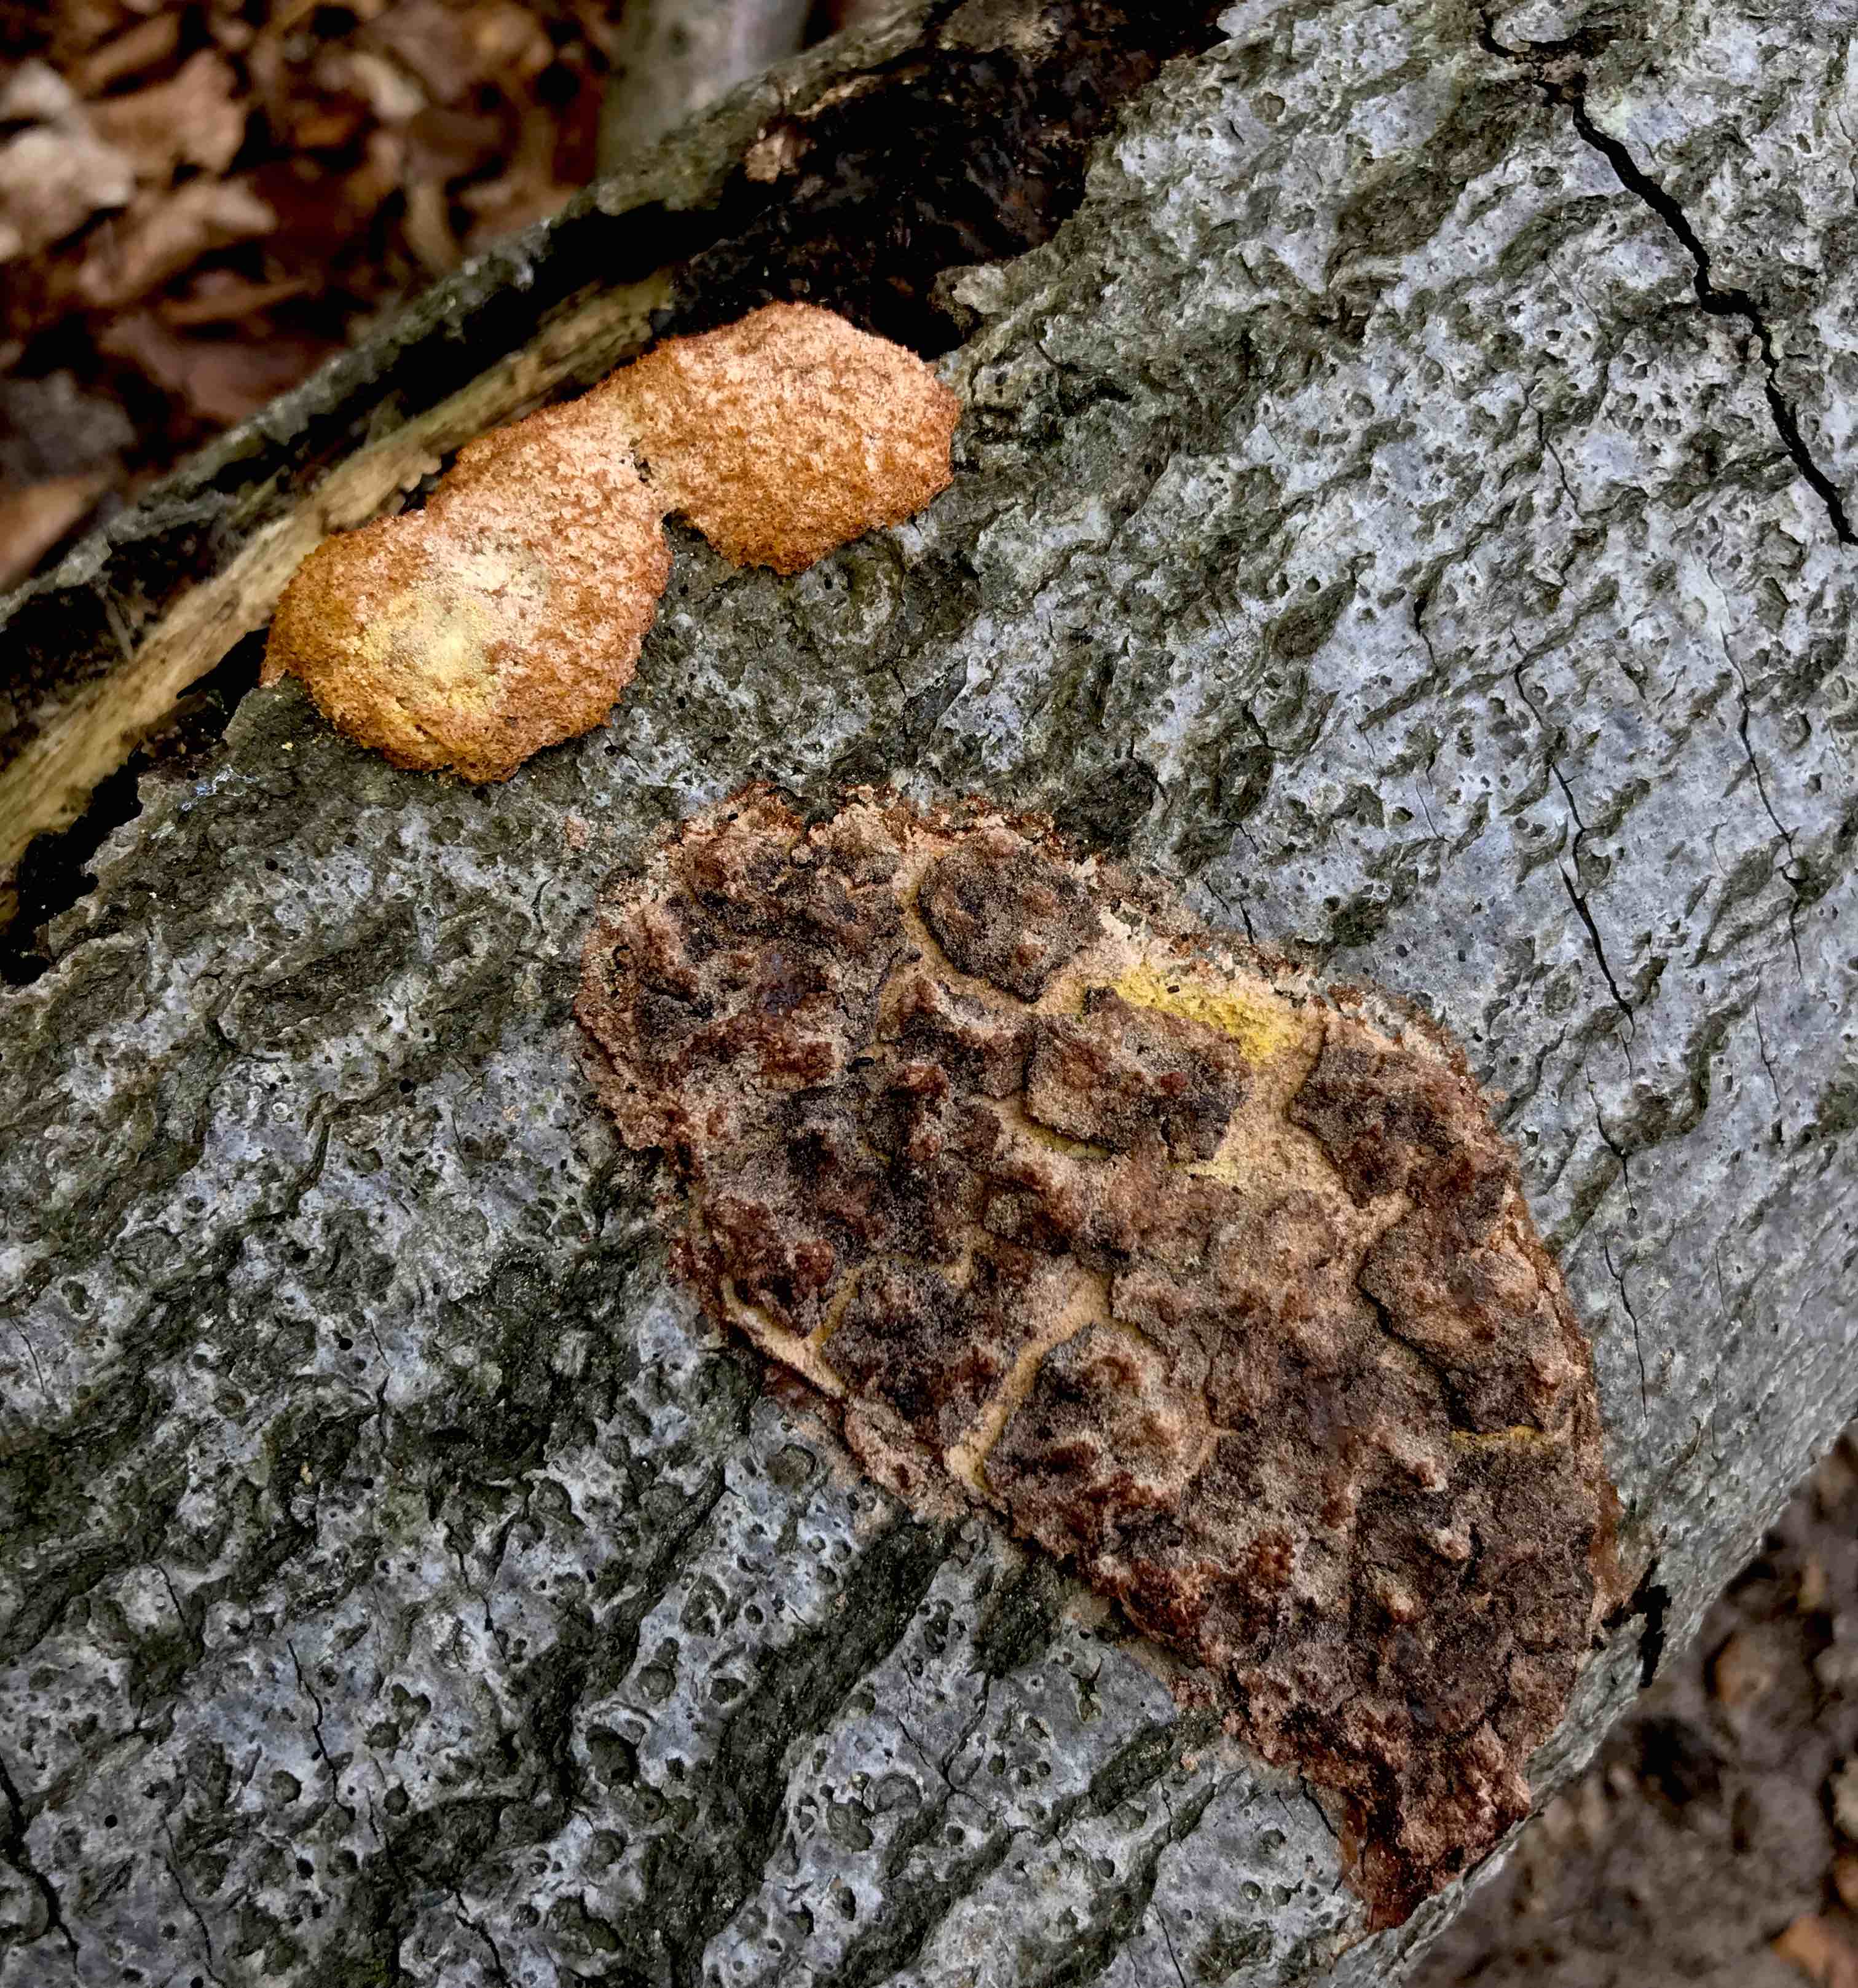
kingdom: Protozoa
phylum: Mycetozoa
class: Myxomycetes
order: Physarales
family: Physaraceae
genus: Fuligo
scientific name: Fuligo septica
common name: gul troldsmør
